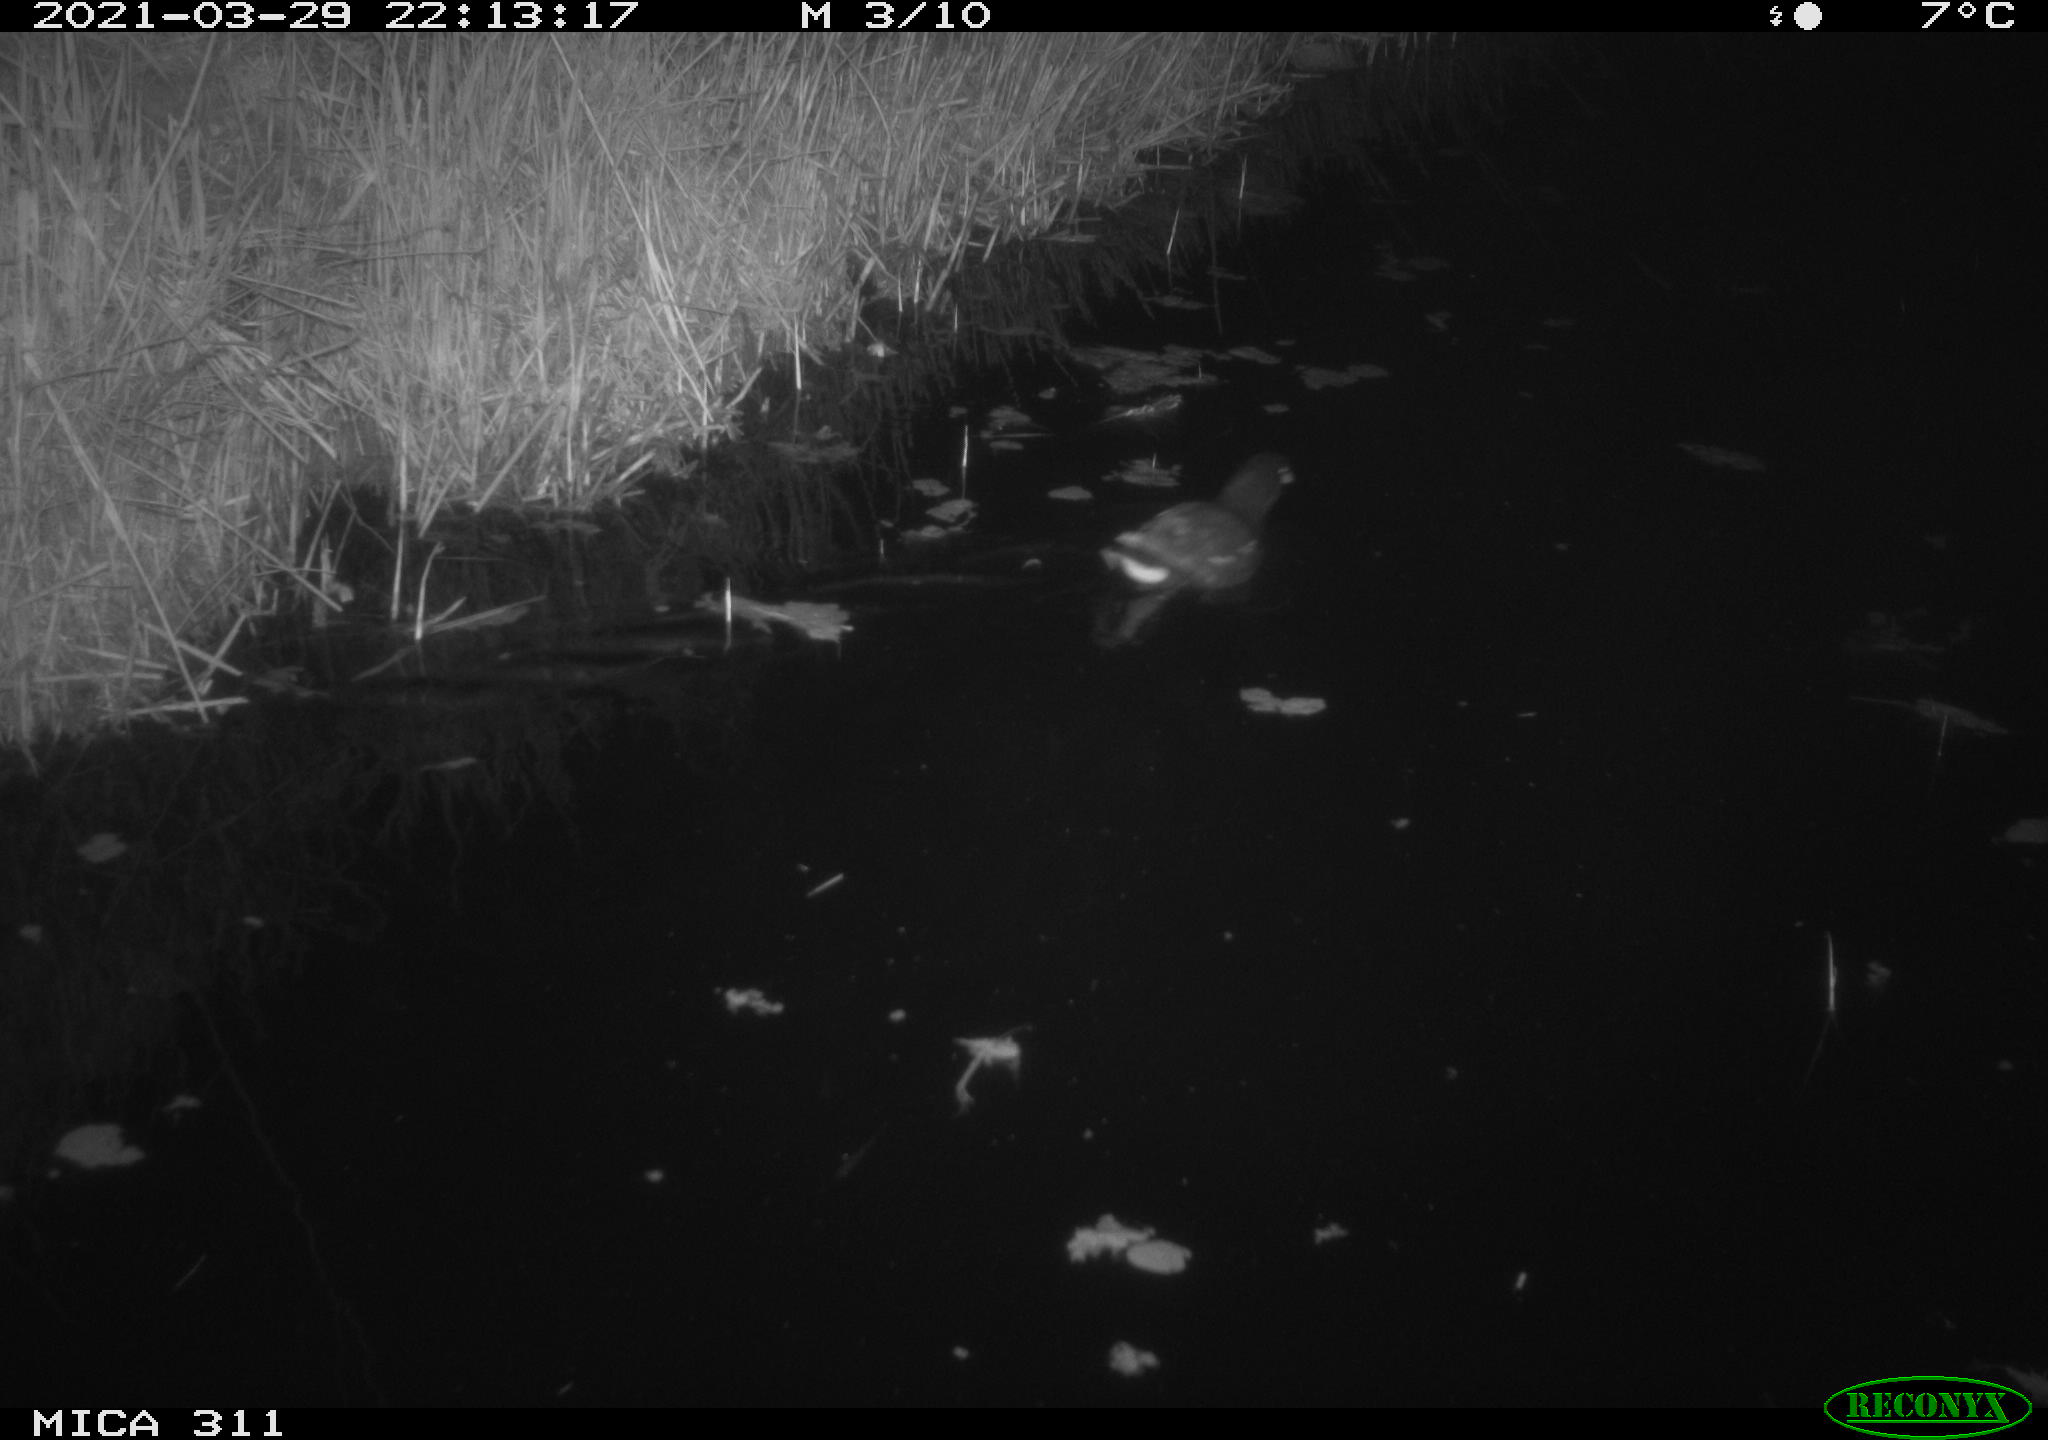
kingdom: Animalia
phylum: Chordata
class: Aves
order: Gruiformes
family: Rallidae
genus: Gallinula
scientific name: Gallinula chloropus
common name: Common moorhen
